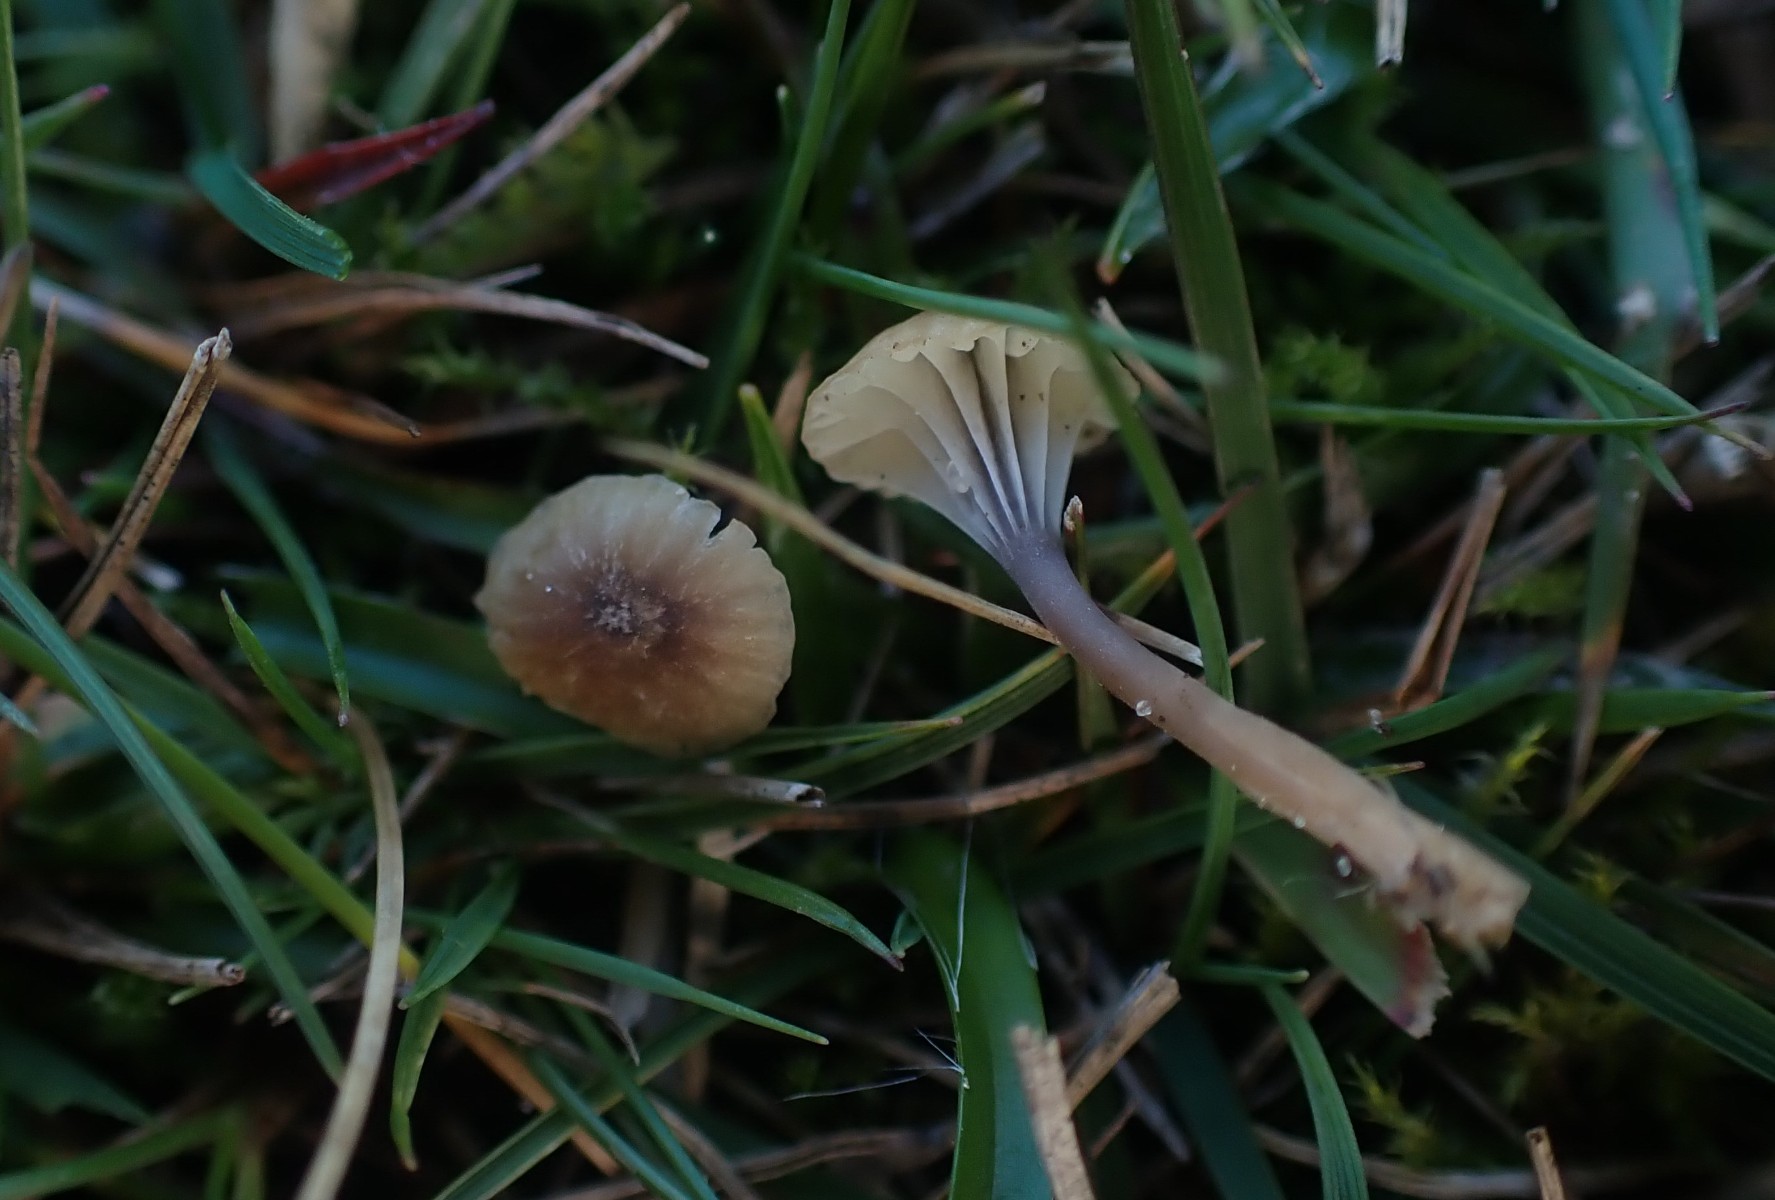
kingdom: Fungi
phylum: Basidiomycota
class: Agaricomycetes
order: Hymenochaetales
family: Rickenellaceae
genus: Rickenella
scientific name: Rickenella swartzii
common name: finstokket mosnavlehat
